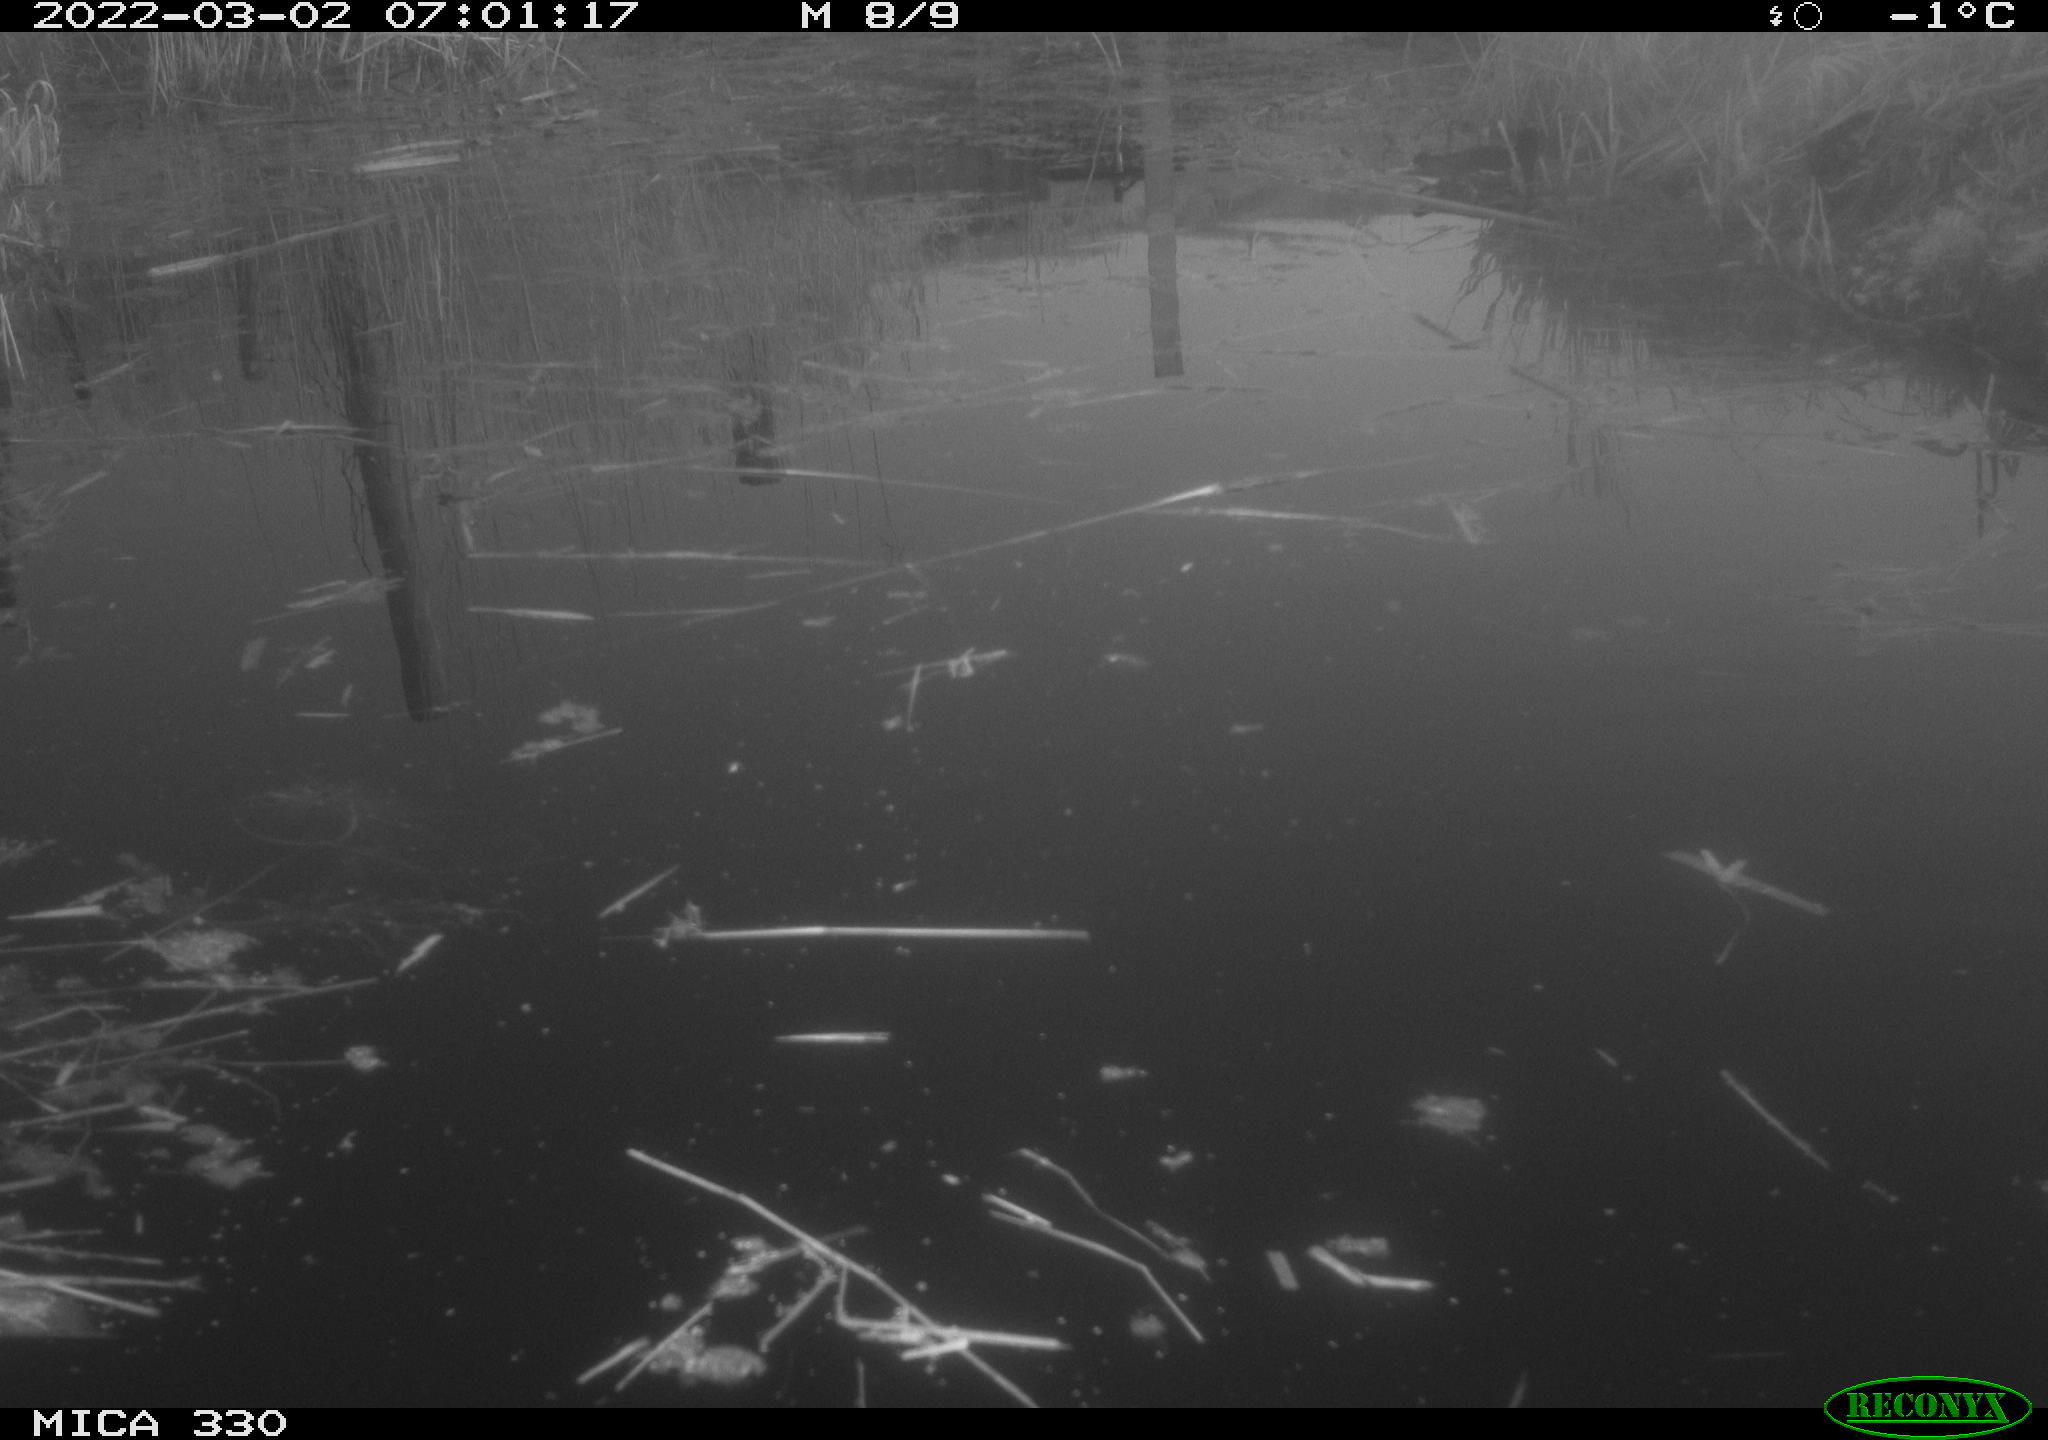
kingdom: Animalia
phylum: Chordata
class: Aves
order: Gruiformes
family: Rallidae
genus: Gallinula
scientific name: Gallinula chloropus
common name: Common moorhen
